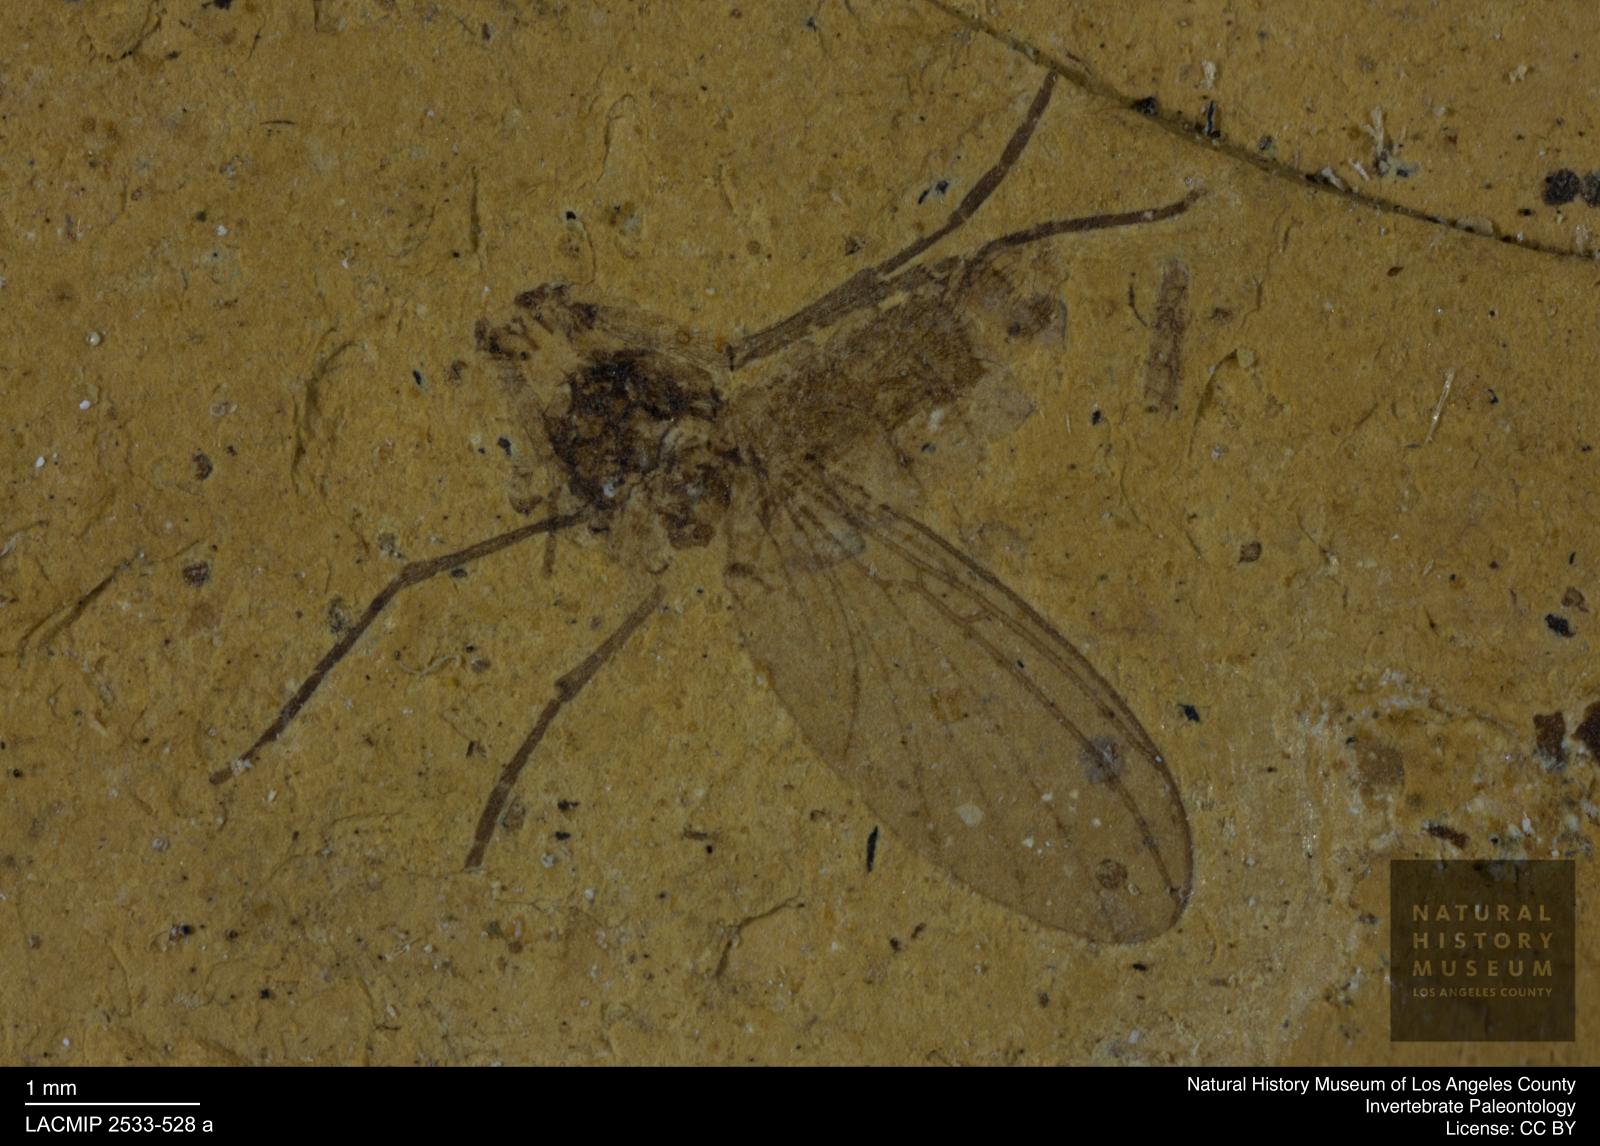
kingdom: Animalia
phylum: Arthropoda
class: Insecta
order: Diptera
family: Mycetophilidae
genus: Mycomya
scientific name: Mycomya fossilis
